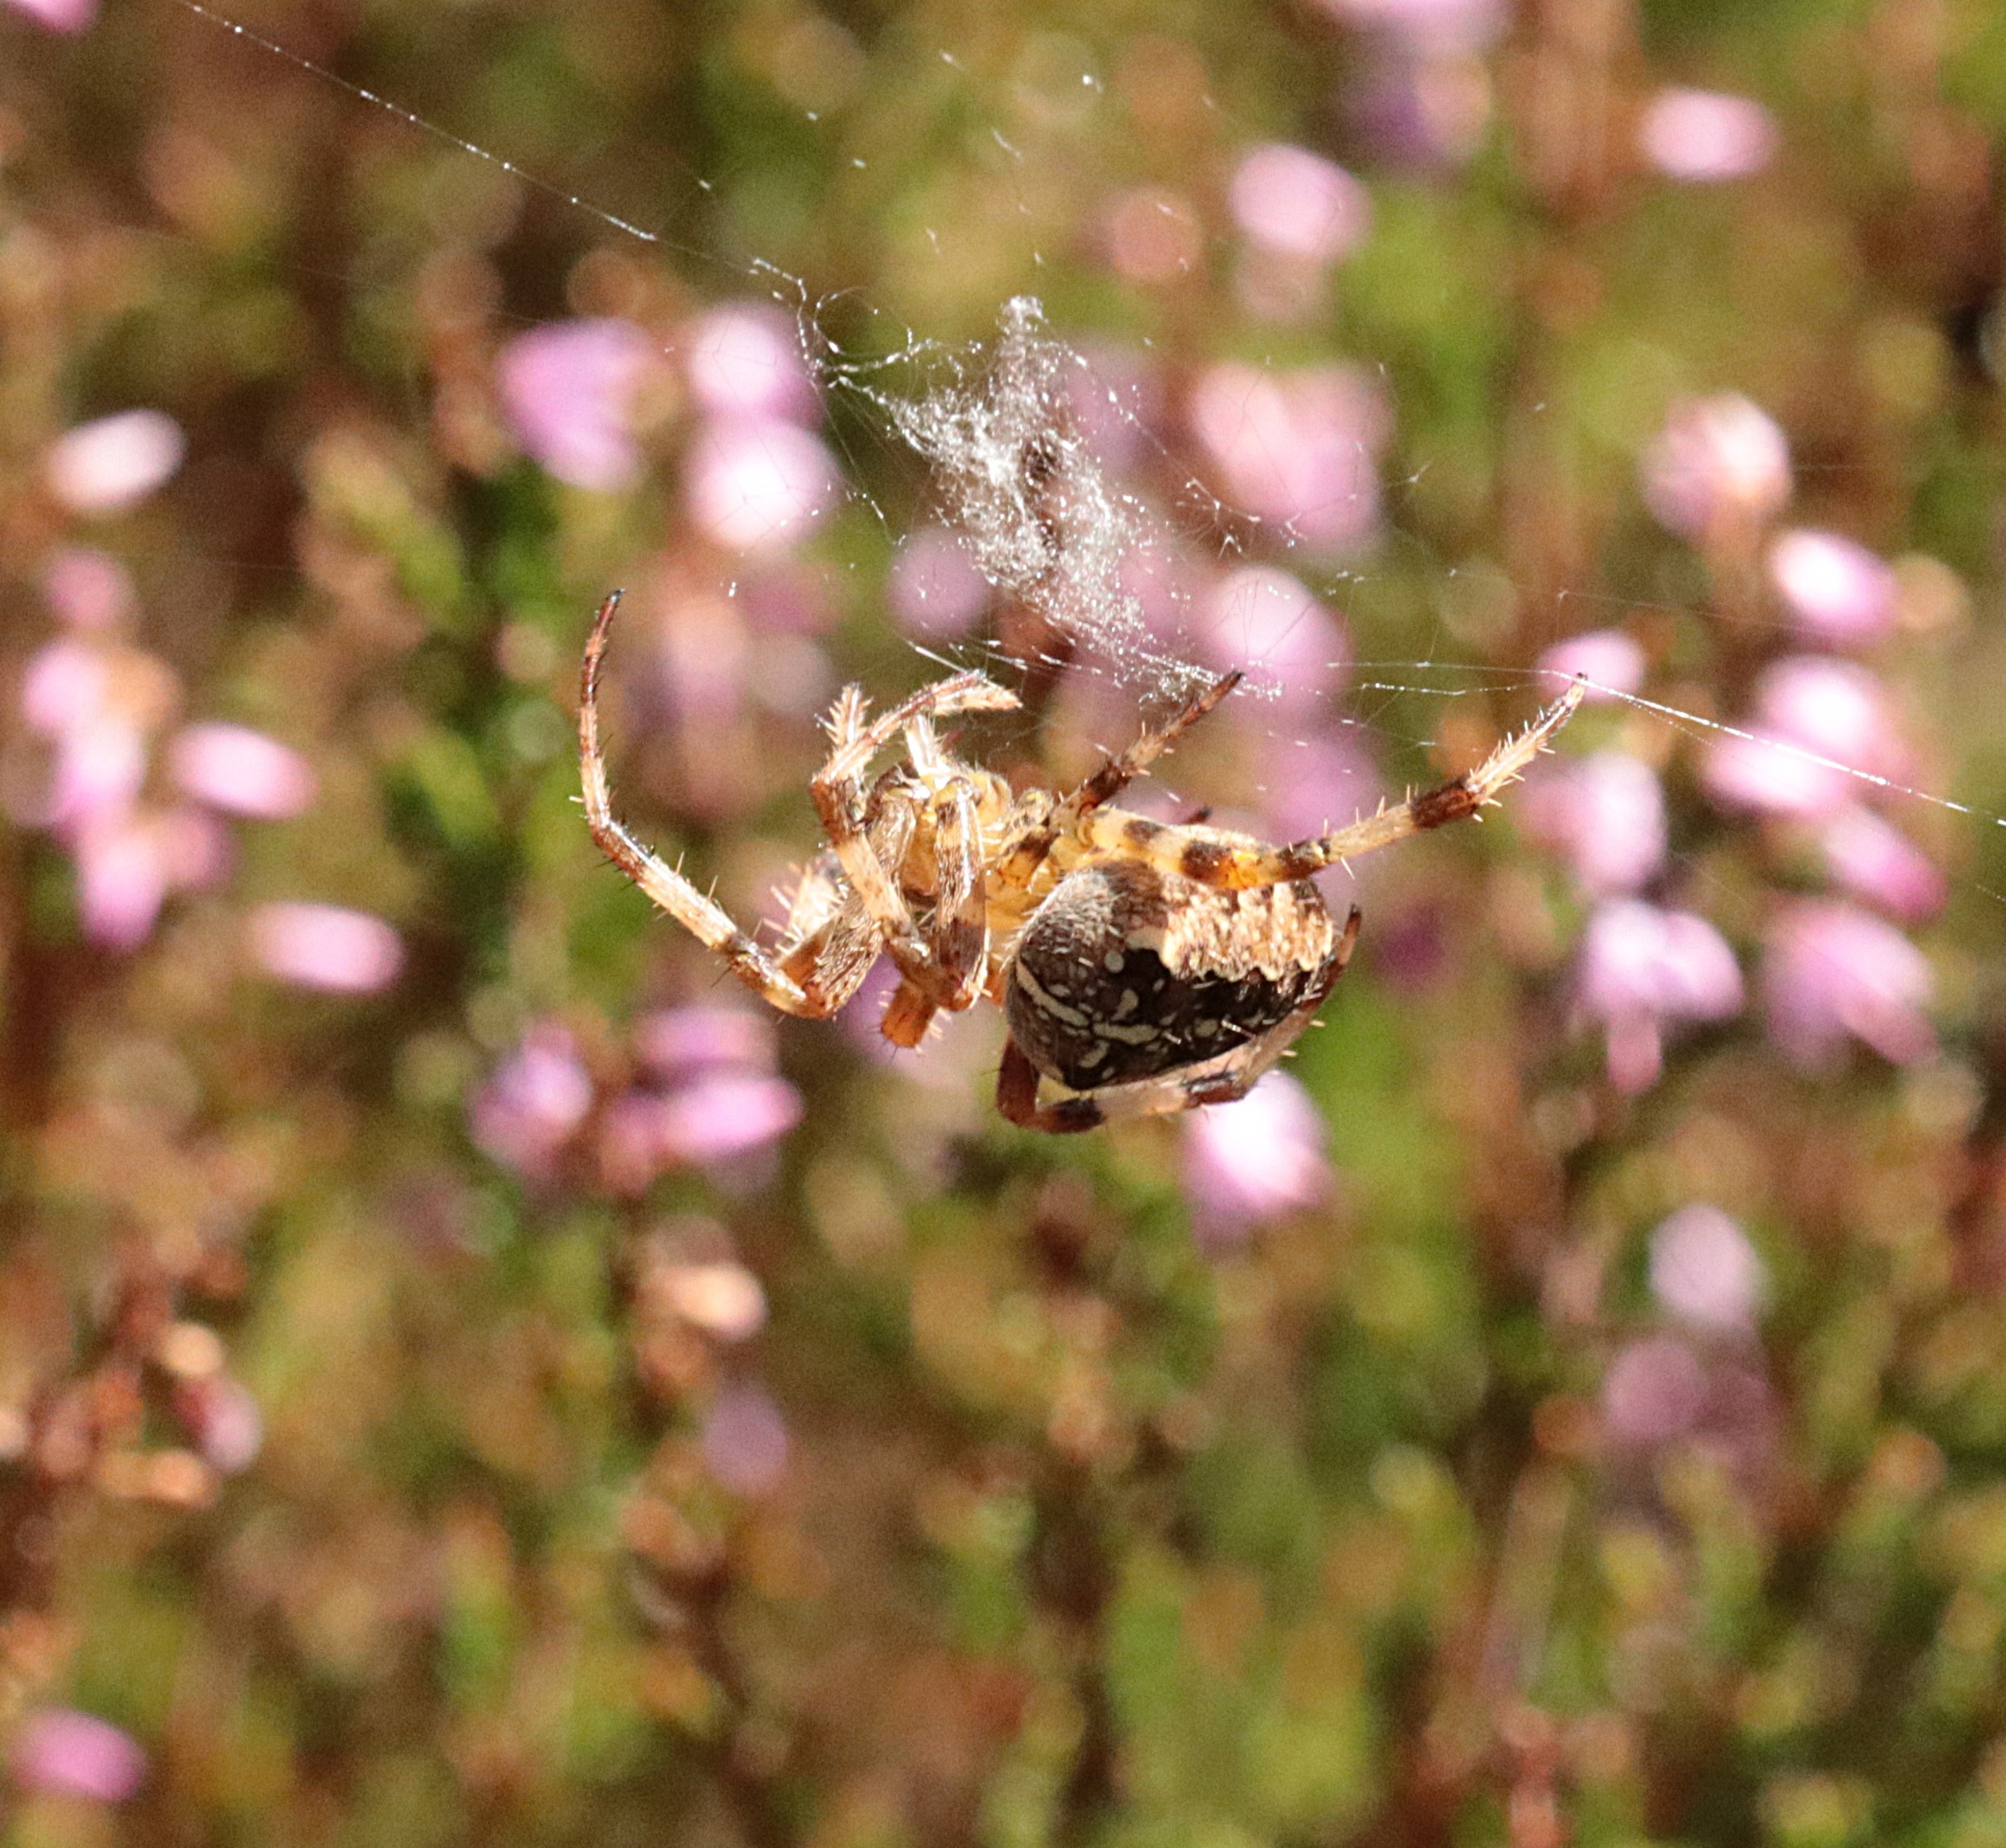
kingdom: Animalia
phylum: Arthropoda
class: Arachnida
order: Araneae
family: Araneidae
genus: Araneus
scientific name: Araneus diadematus
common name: Korsedderkop
